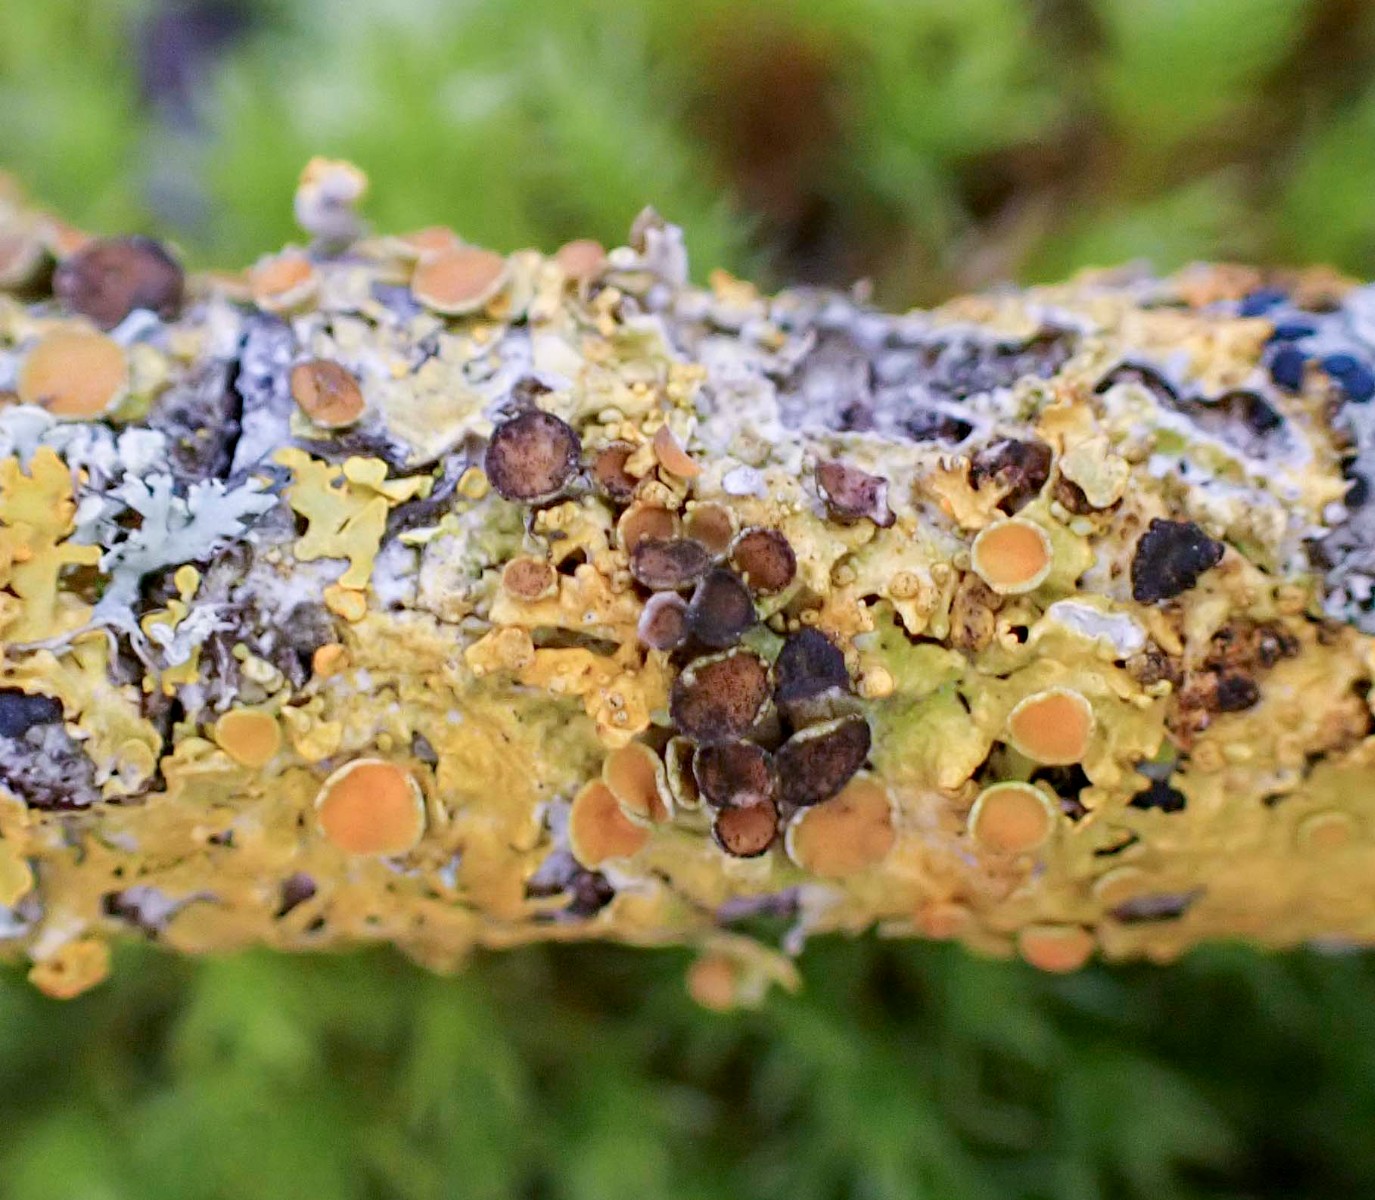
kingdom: Fungi
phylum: Ascomycota
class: Dothideomycetes
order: Mycosphaerellales
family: Teratosphaeriaceae
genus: Xanthoriicola
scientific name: Xanthoriicola physciae
